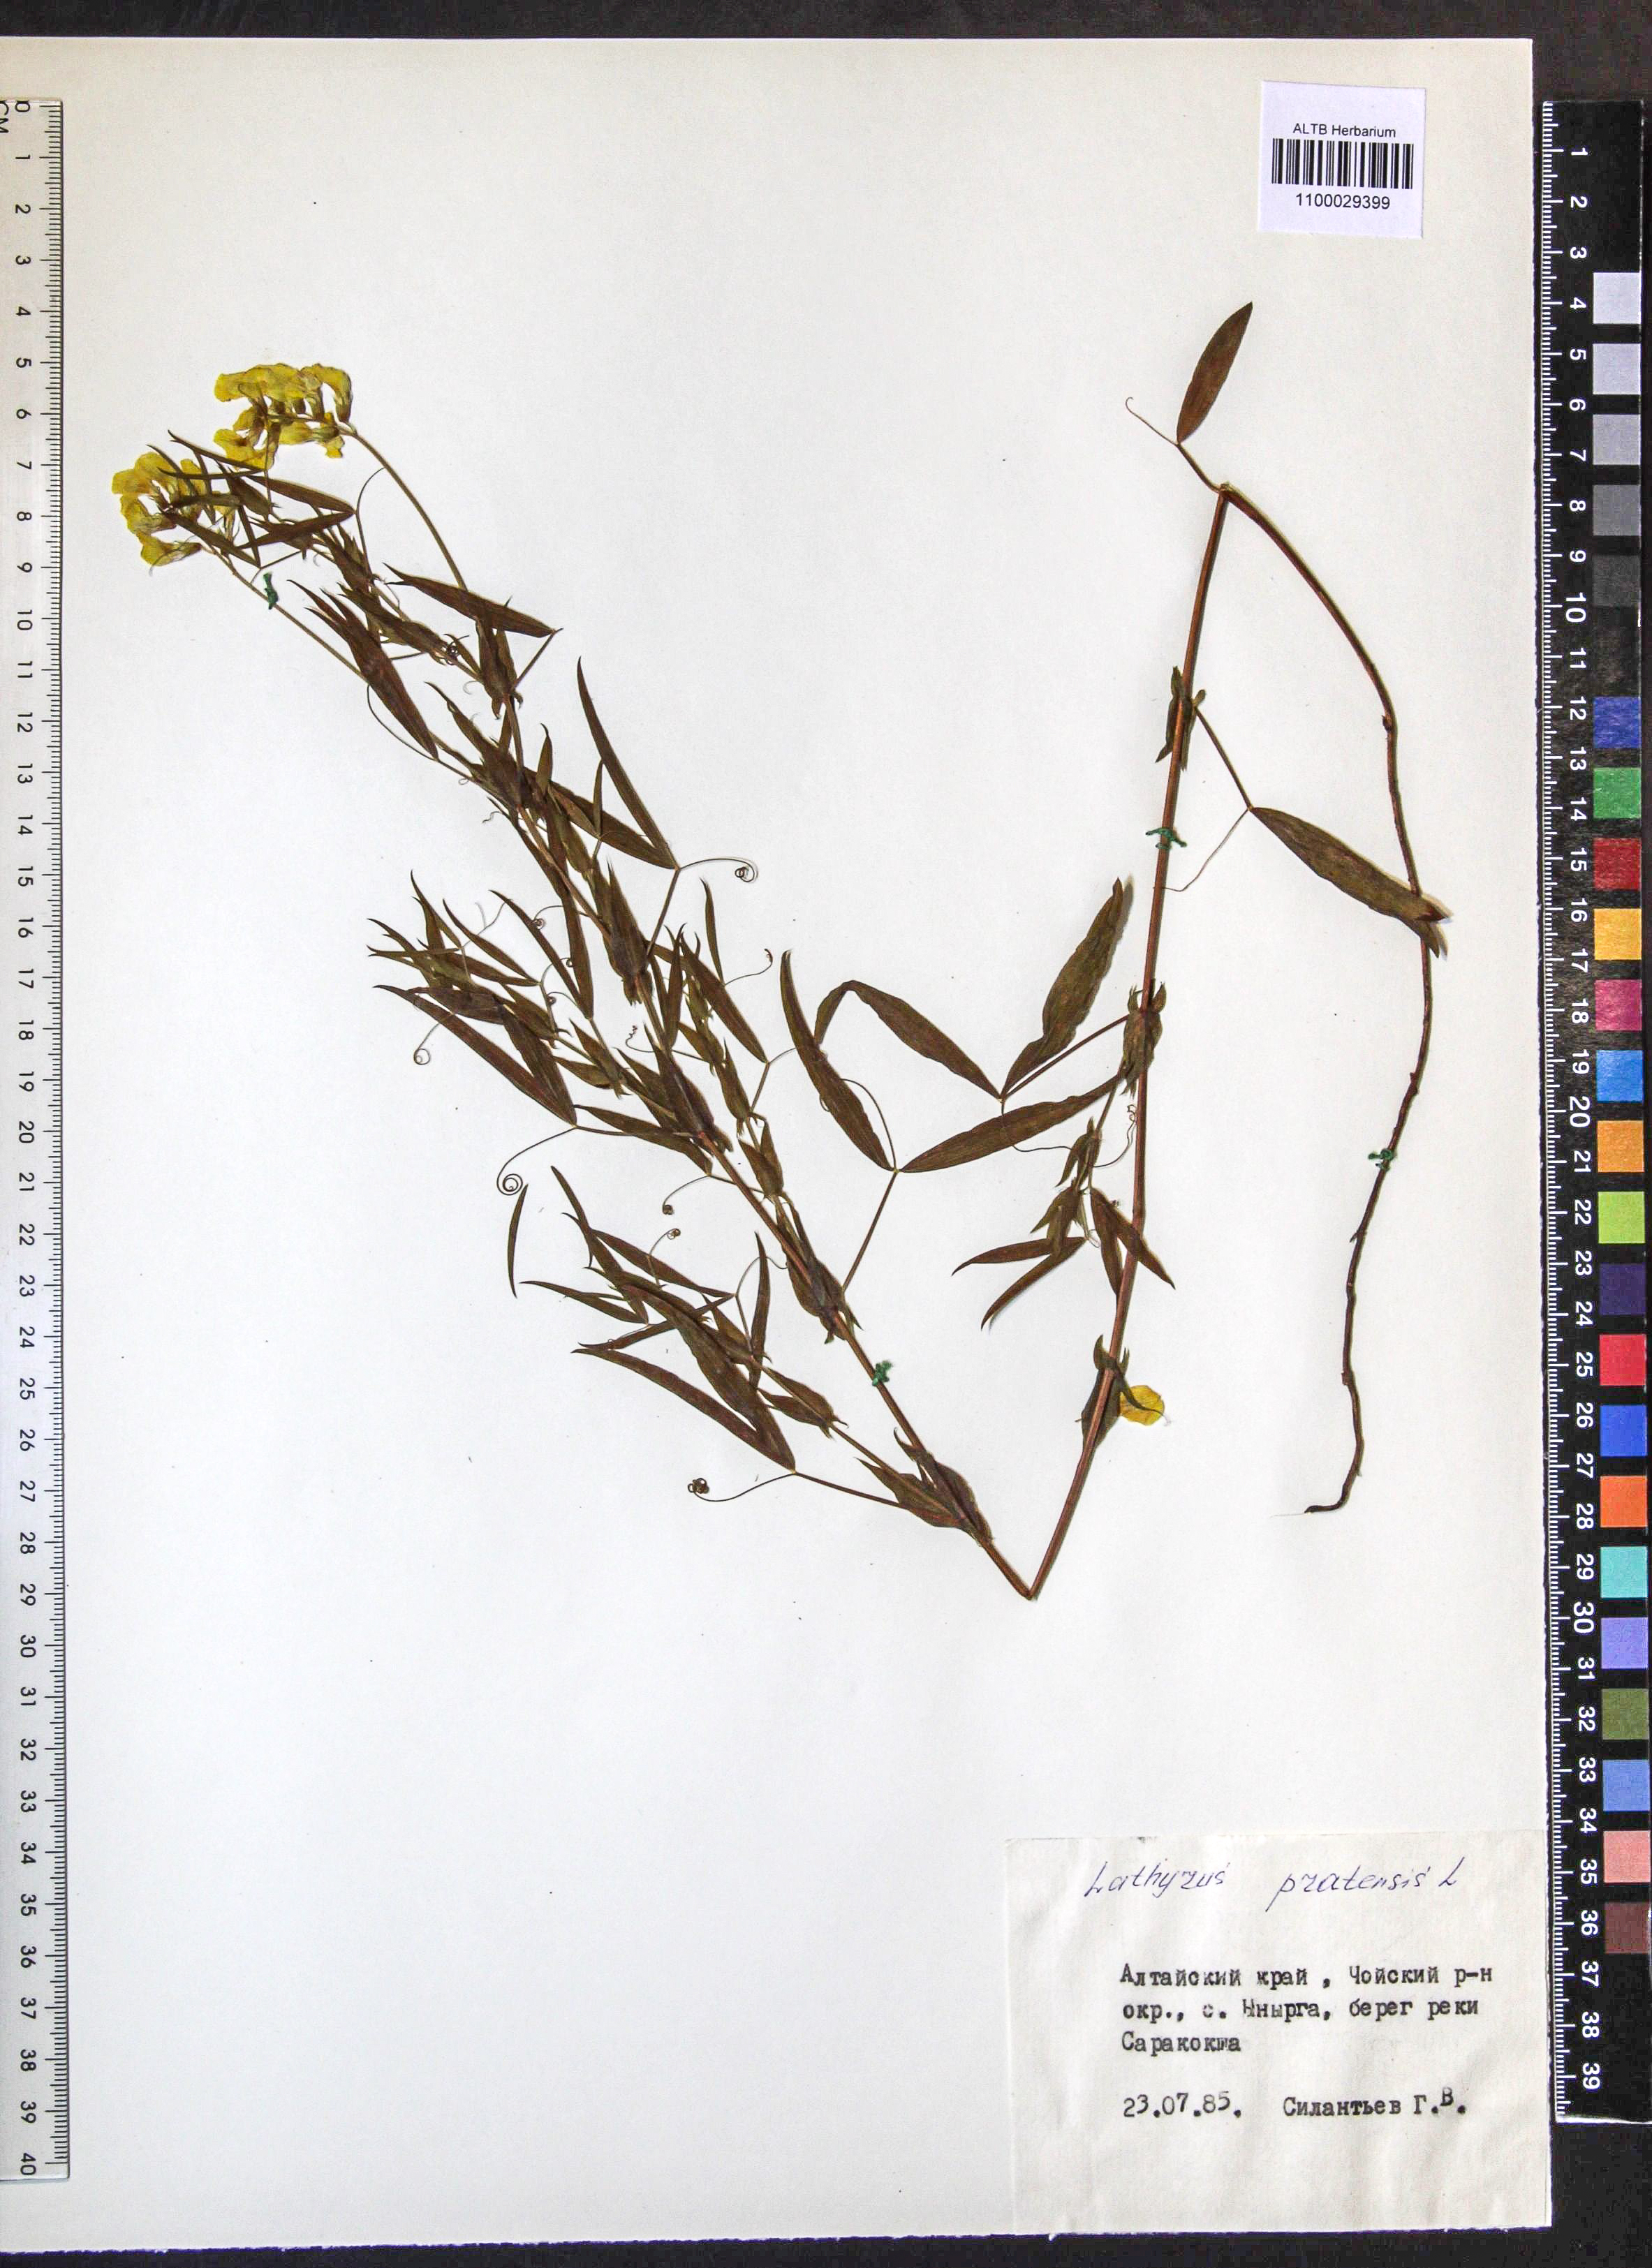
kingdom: Plantae
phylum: Tracheophyta
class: Magnoliopsida
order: Fabales
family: Fabaceae
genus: Lathyrus
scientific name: Lathyrus pratensis
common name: Meadow vetchling
